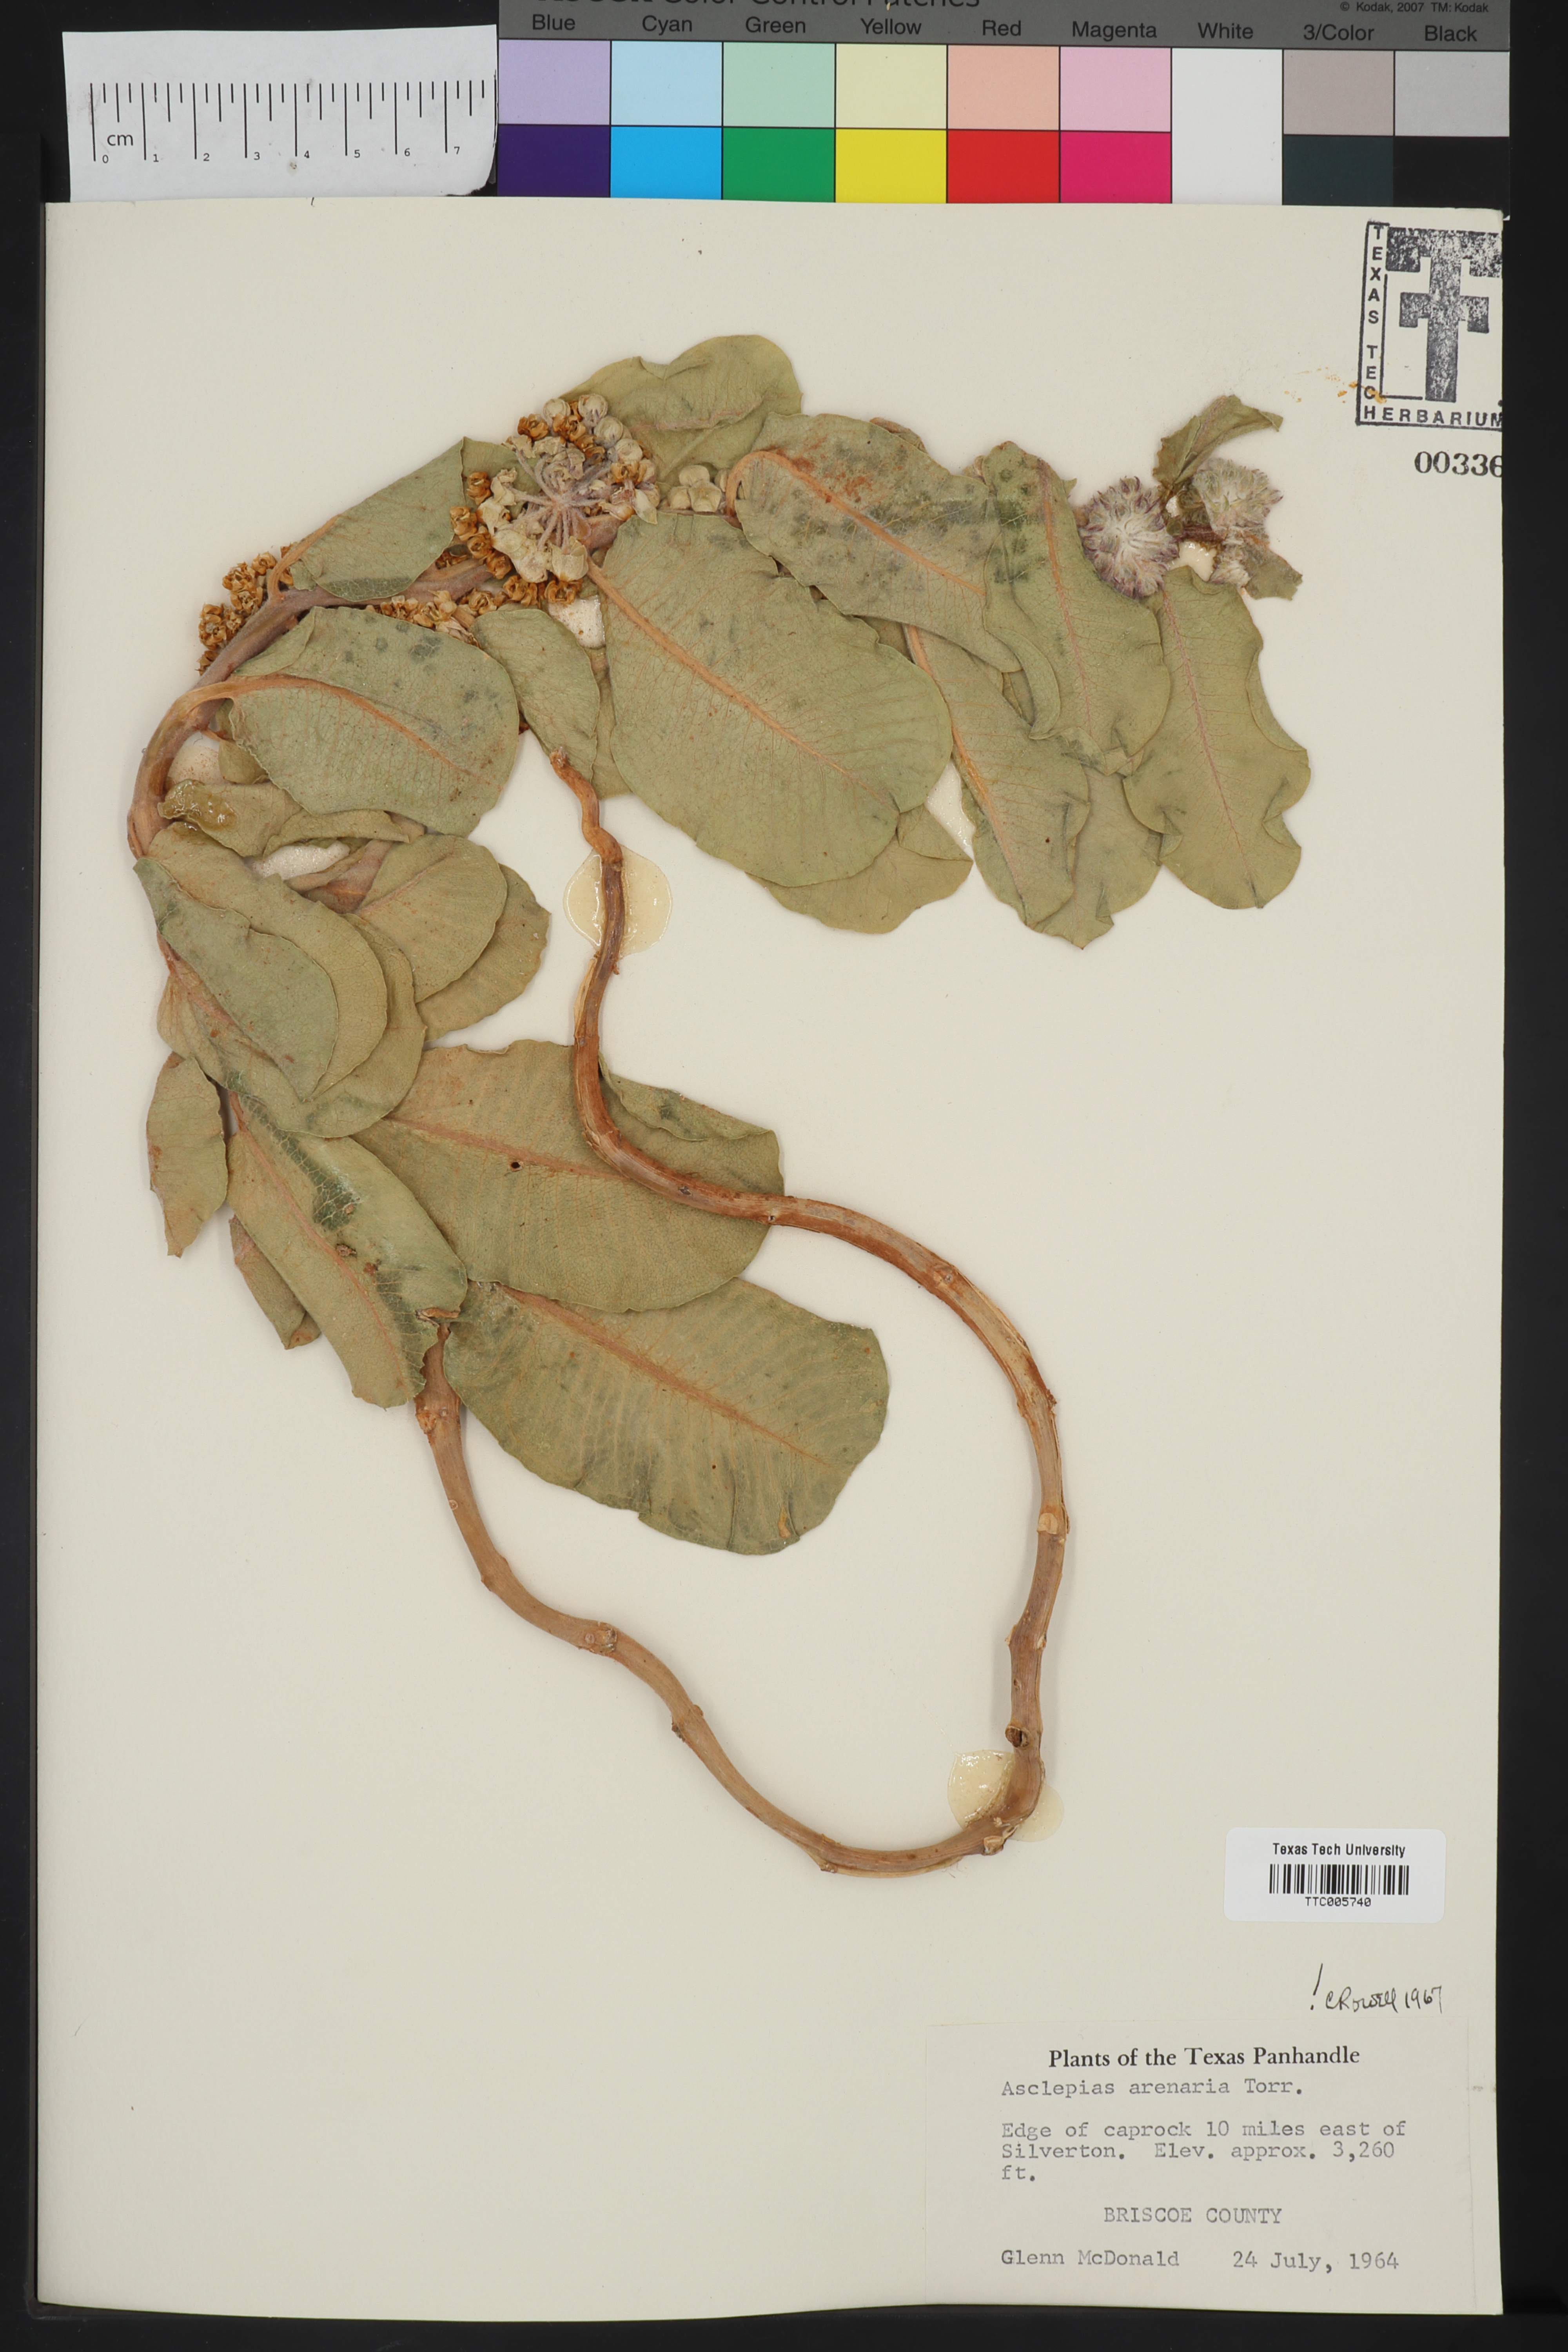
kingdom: Plantae
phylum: Tracheophyta
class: Magnoliopsida
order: Gentianales
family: Apocynaceae
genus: Asclepias
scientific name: Asclepias arenaria
